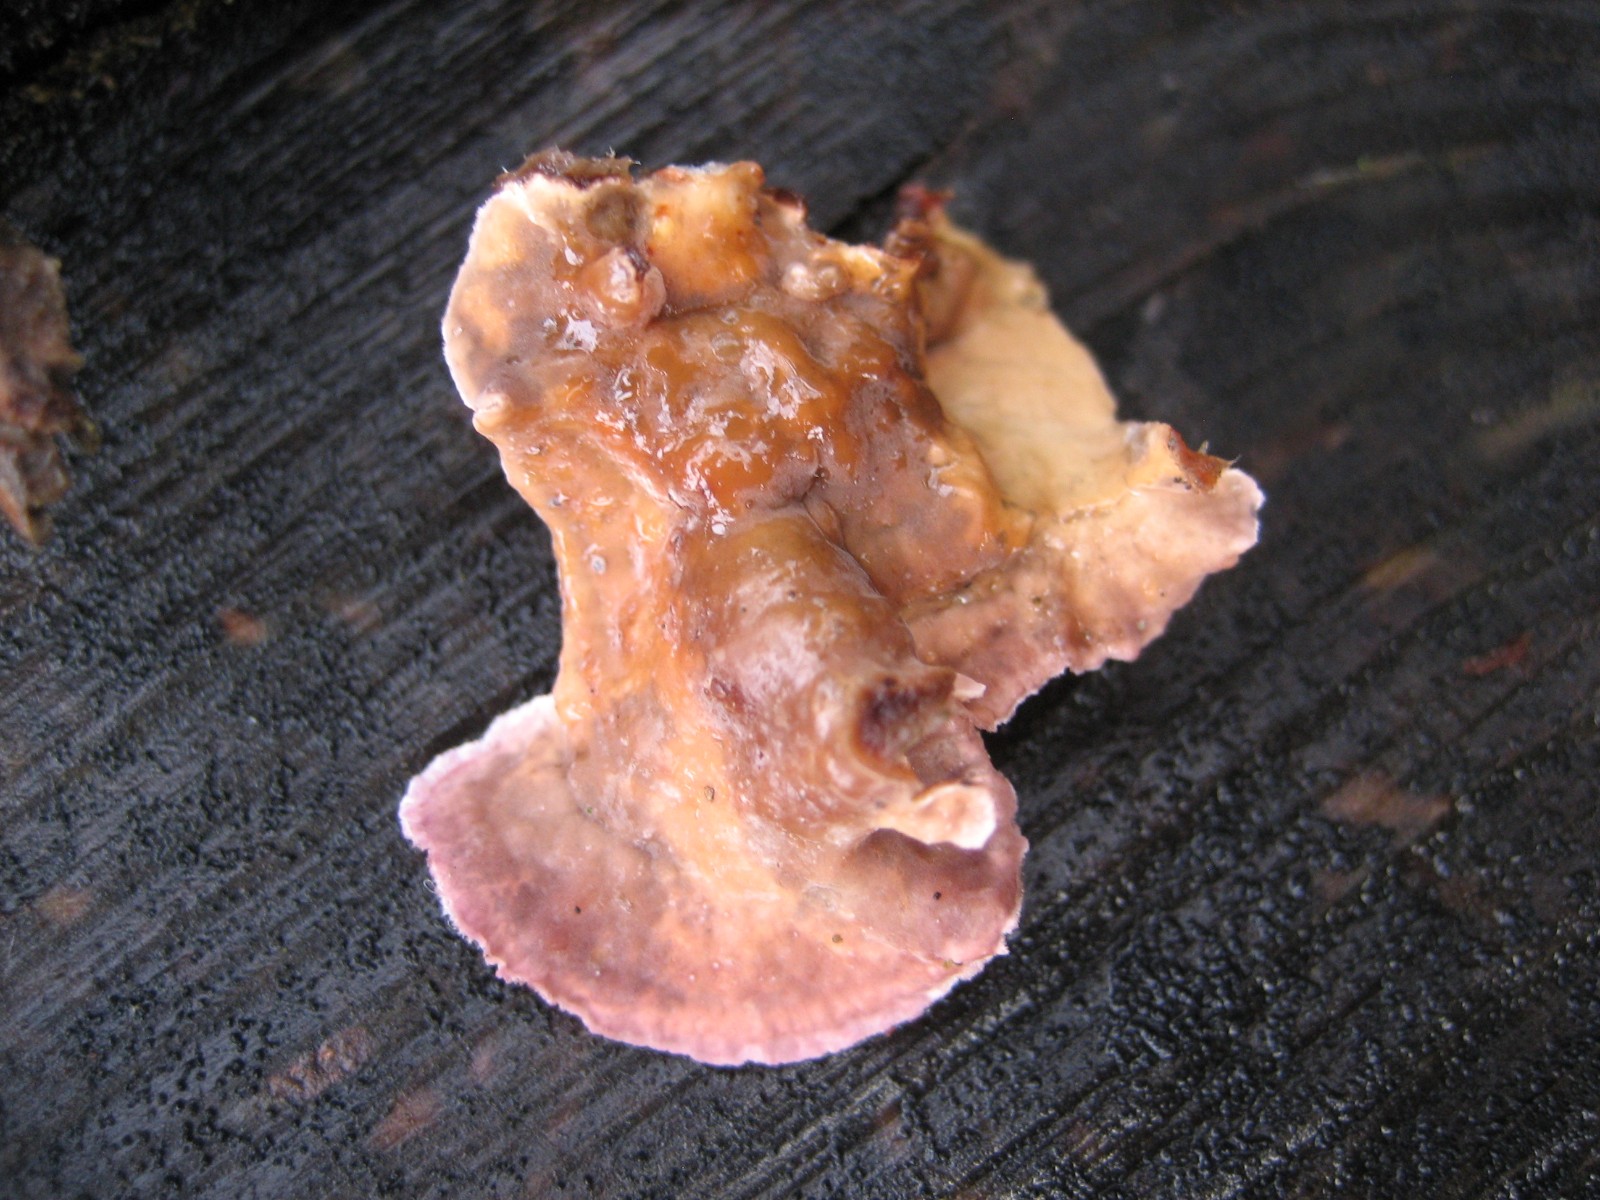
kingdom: Fungi
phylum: Basidiomycota
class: Agaricomycetes
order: Agaricales
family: Cyphellaceae
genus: Chondrostereum
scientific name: Chondrostereum purpureum
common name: purpurlædersvamp
